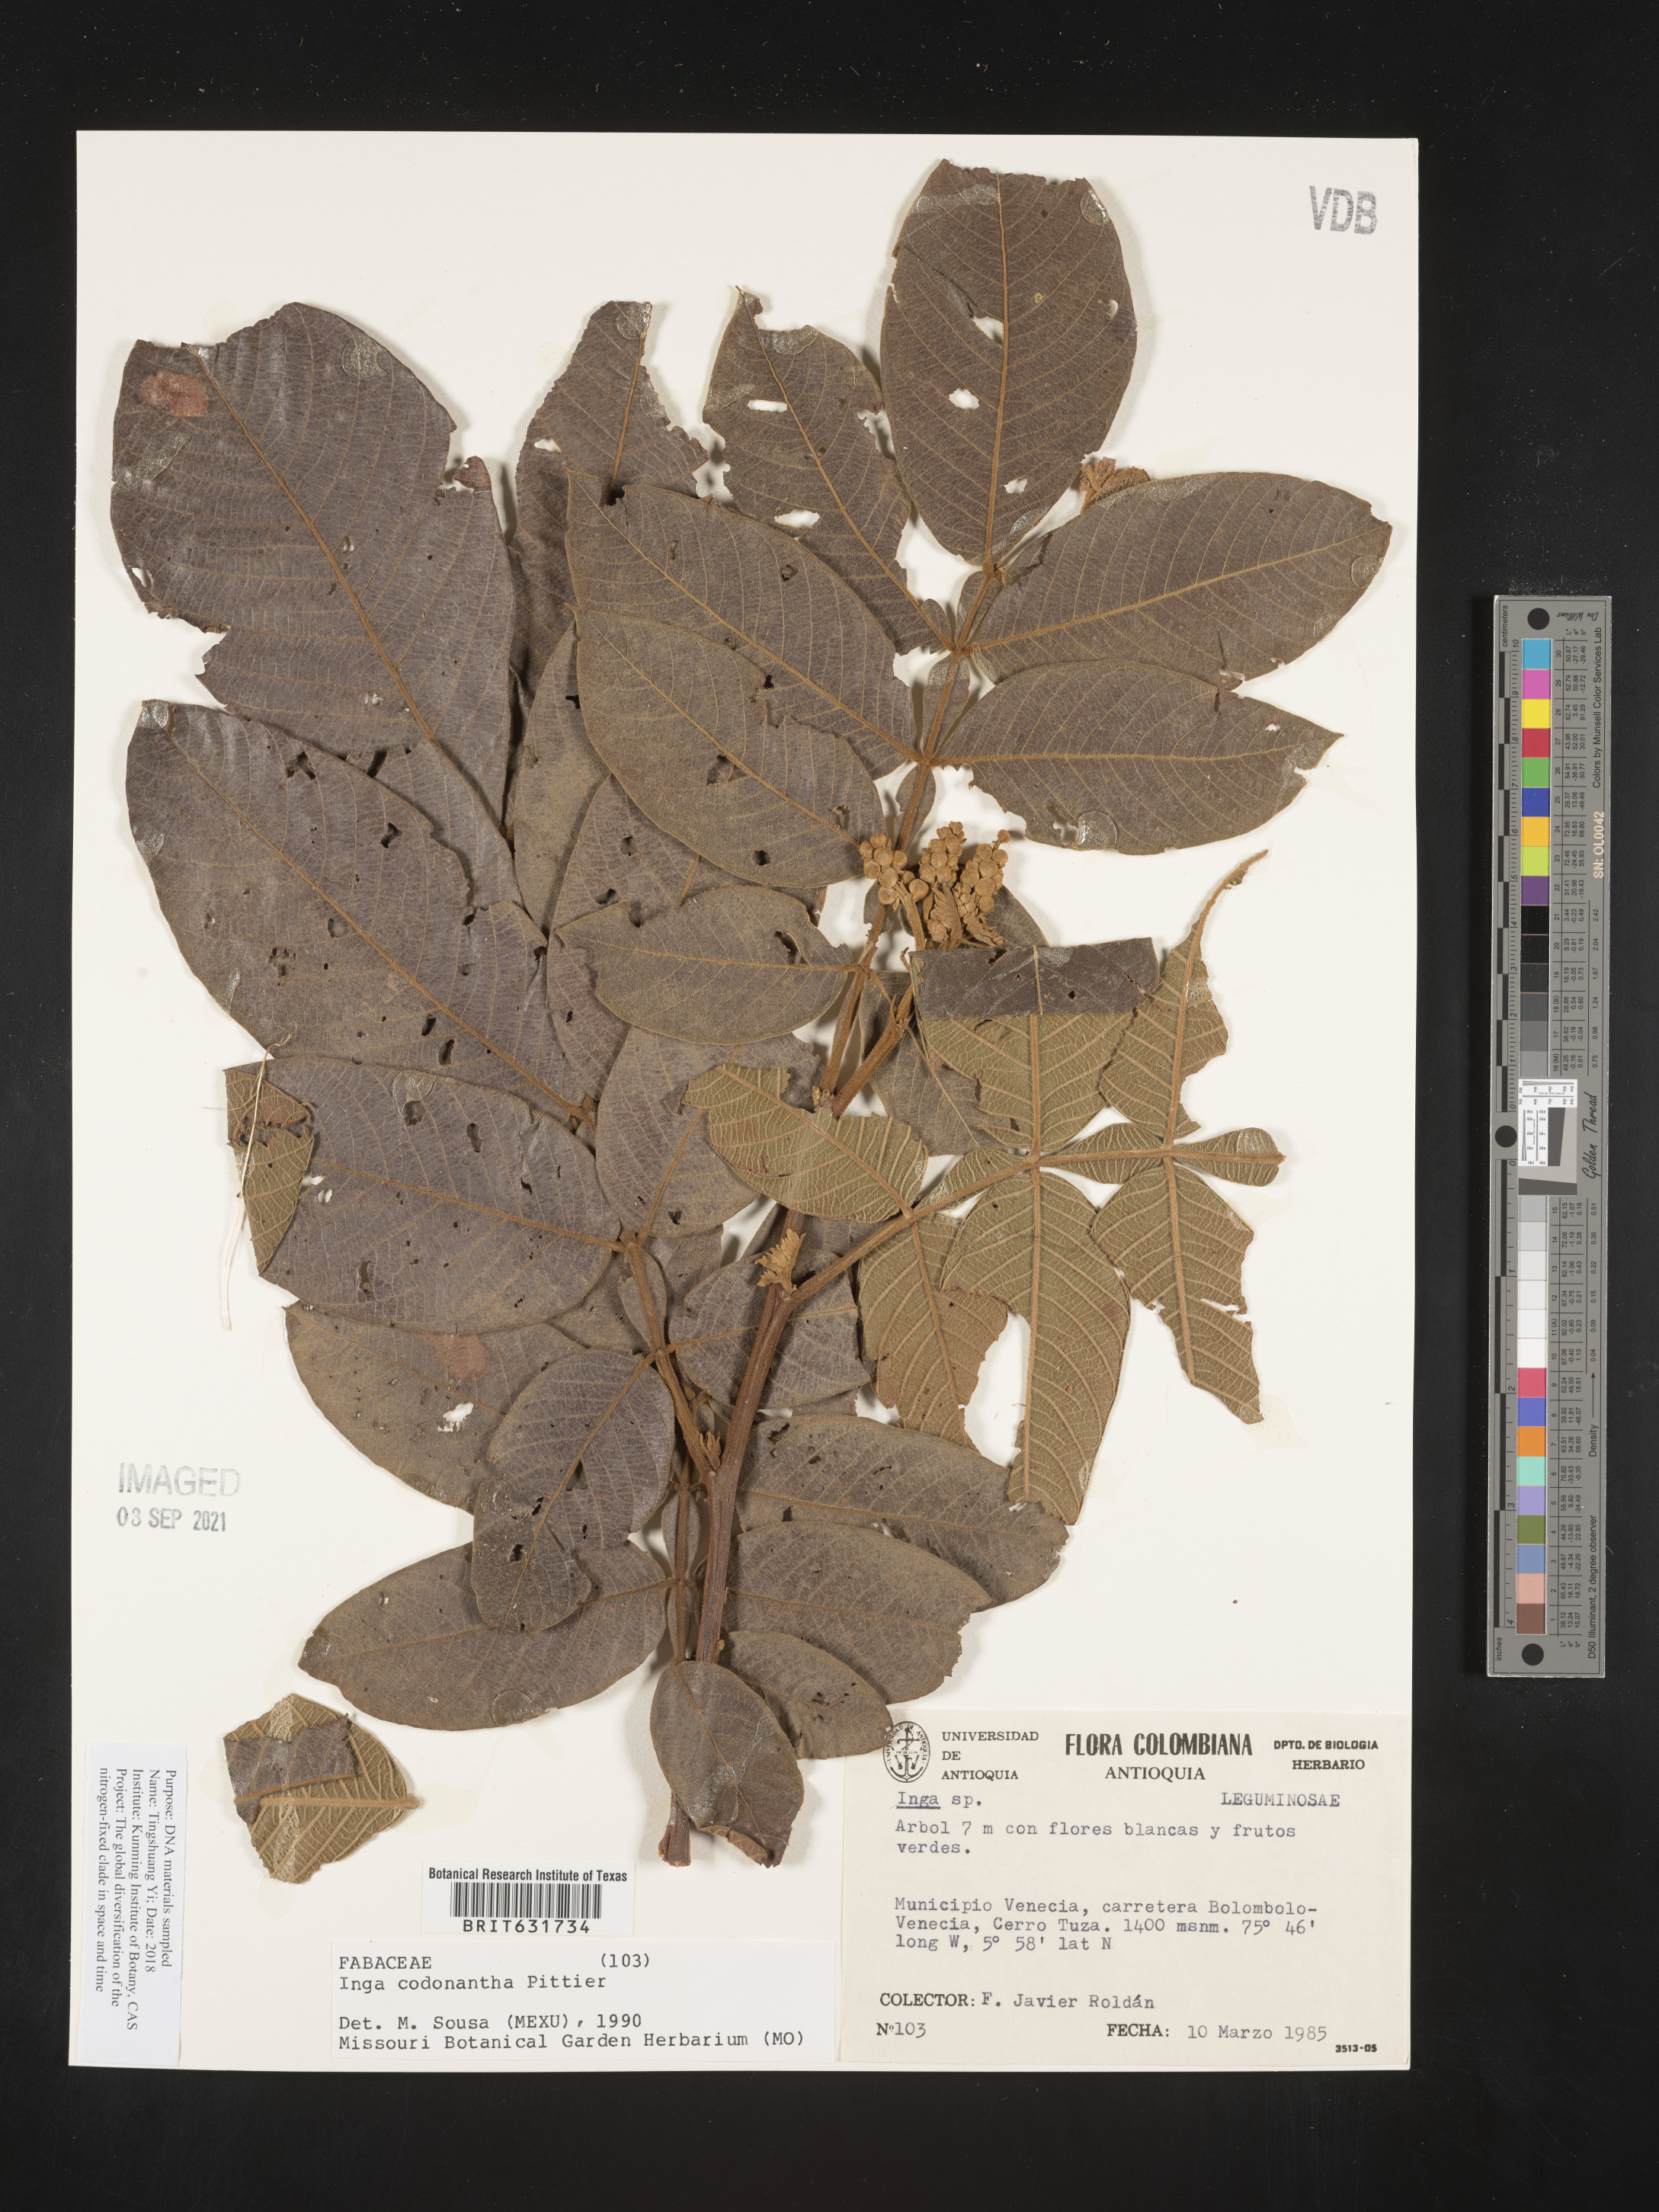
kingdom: Plantae
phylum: Tracheophyta
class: Magnoliopsida
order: Fabales
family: Fabaceae
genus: Inga
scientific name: Inga
